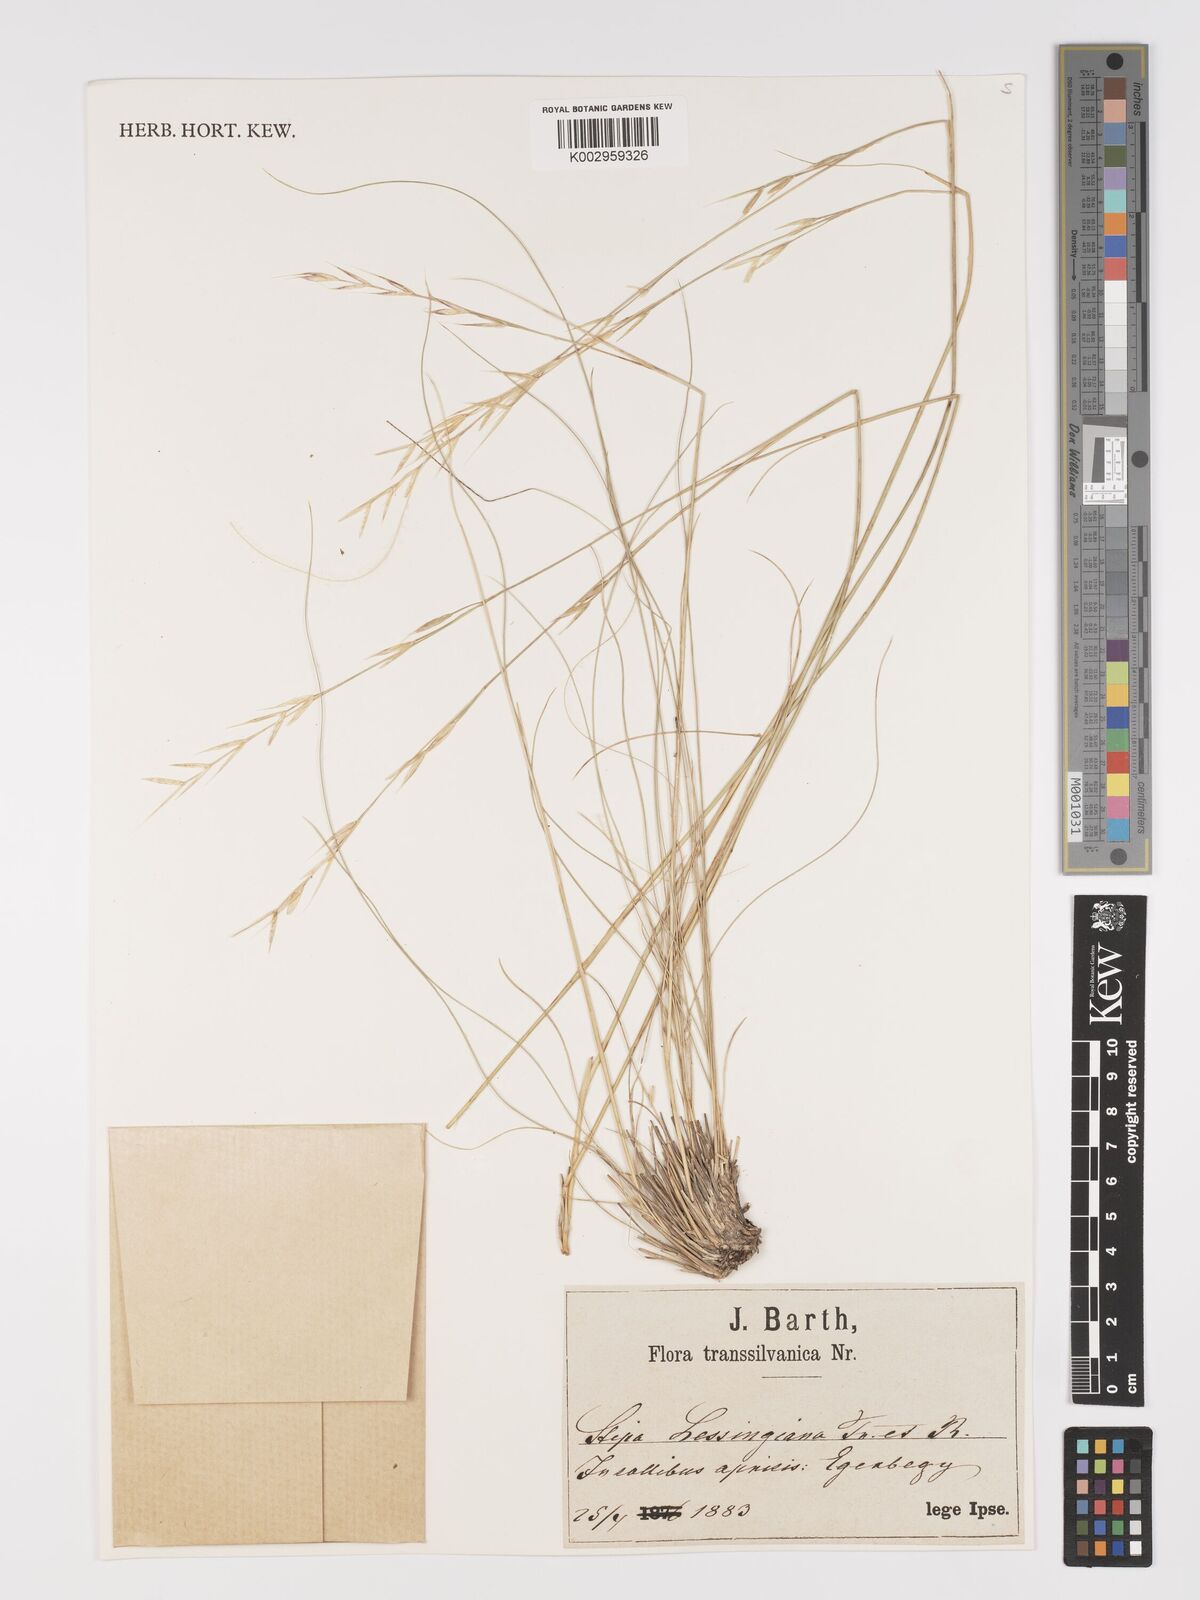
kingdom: Plantae
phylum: Tracheophyta
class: Liliopsida
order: Poales
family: Poaceae
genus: Stipa
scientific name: Stipa lessingiana
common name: Needle grass
